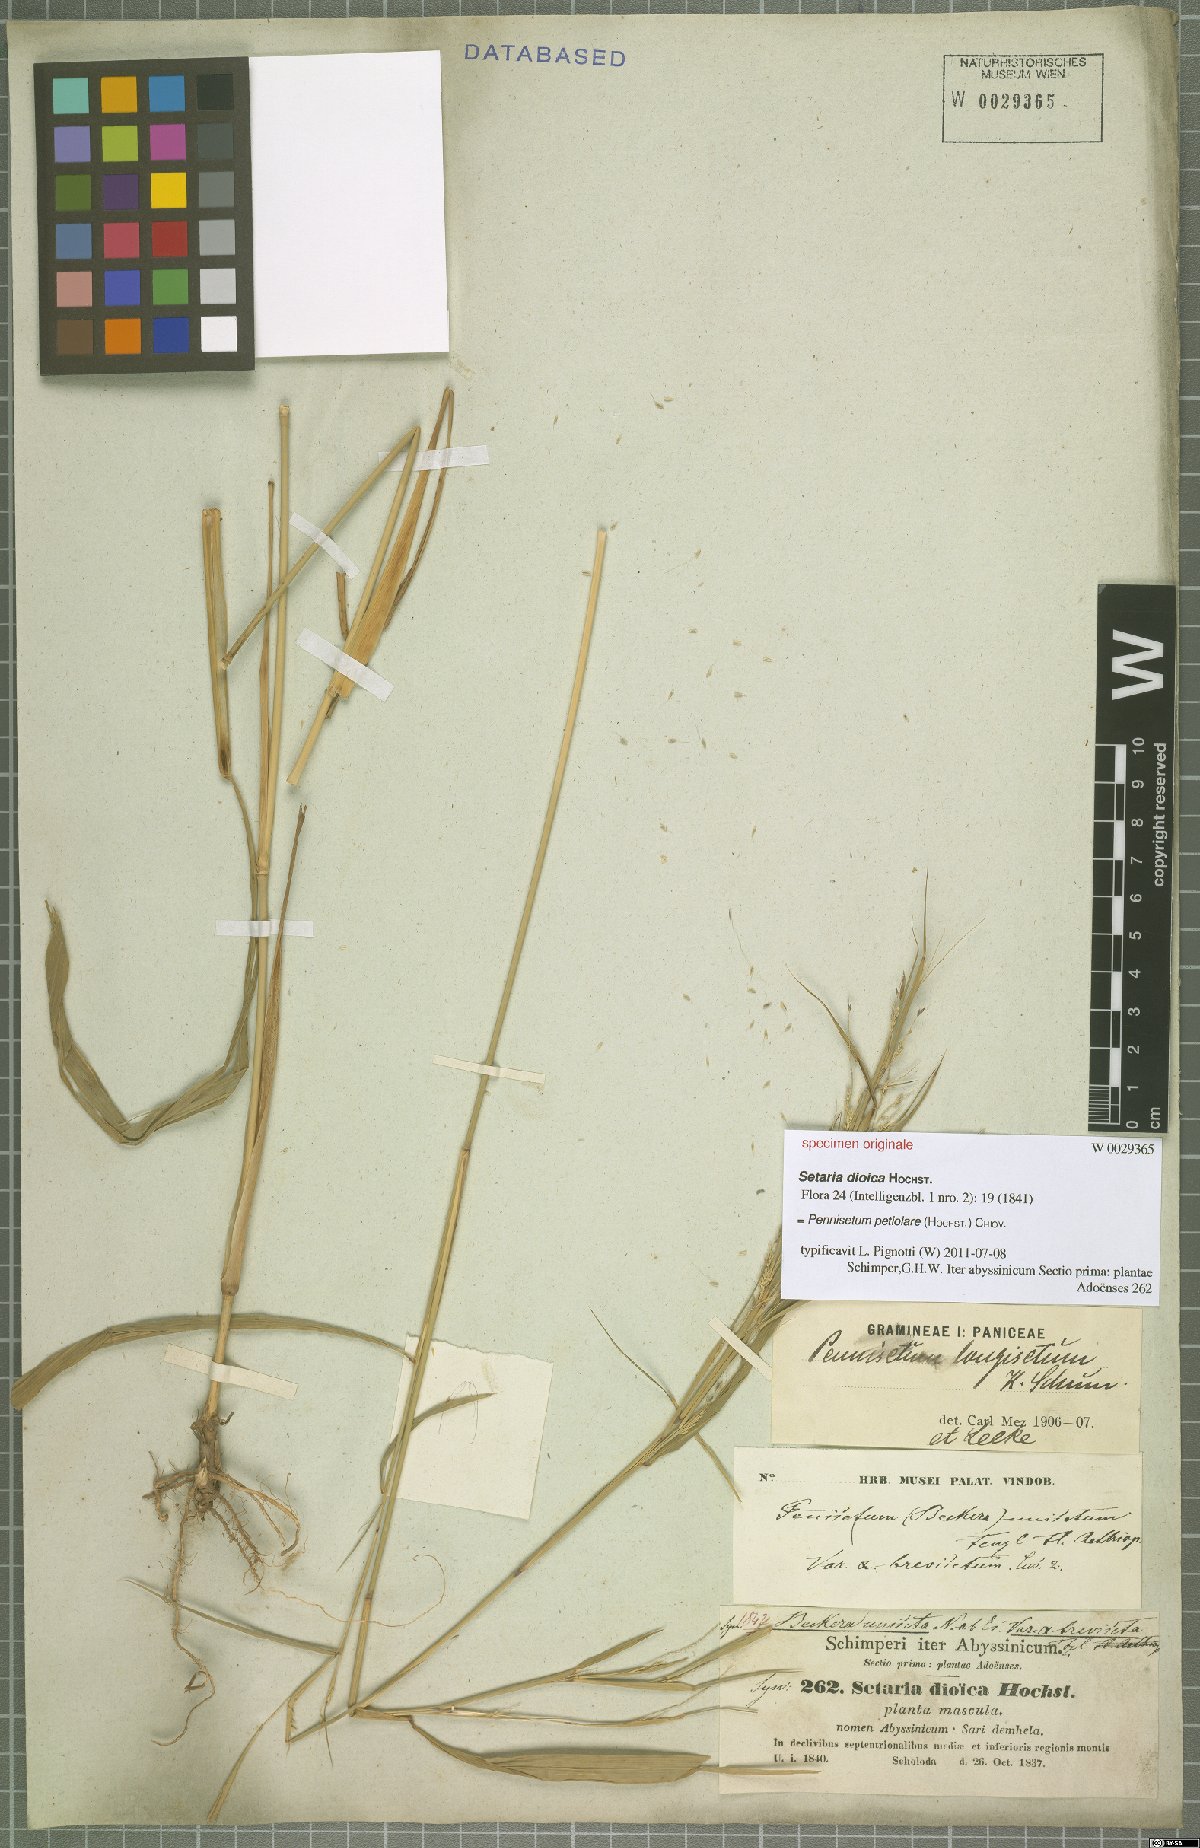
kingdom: Plantae
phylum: Tracheophyta
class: Liliopsida
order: Poales
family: Poaceae
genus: Cenchrus
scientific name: Cenchrus petiolaris
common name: Grass
